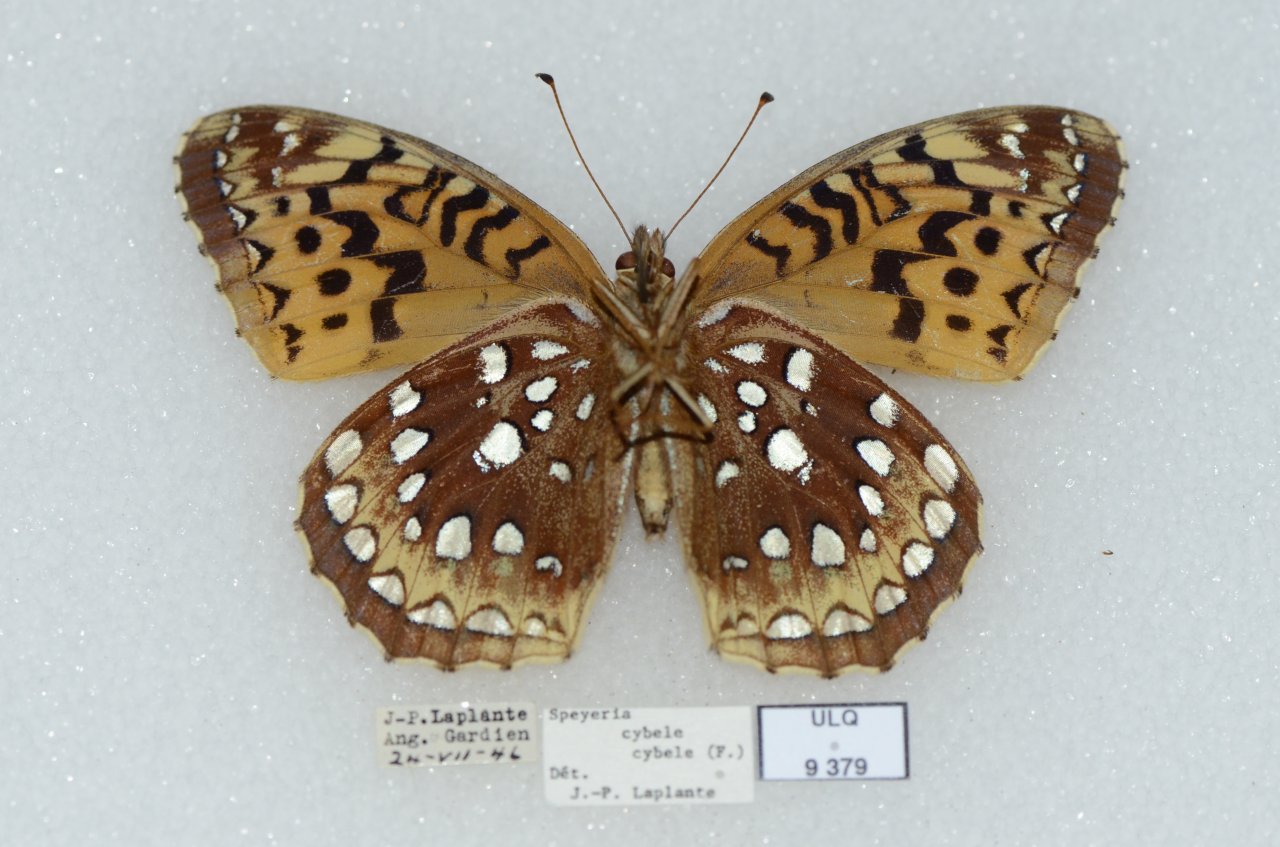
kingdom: Animalia
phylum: Arthropoda
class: Insecta
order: Lepidoptera
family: Nymphalidae
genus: Speyeria
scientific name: Speyeria cybele
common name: Great Spangled Fritillary
